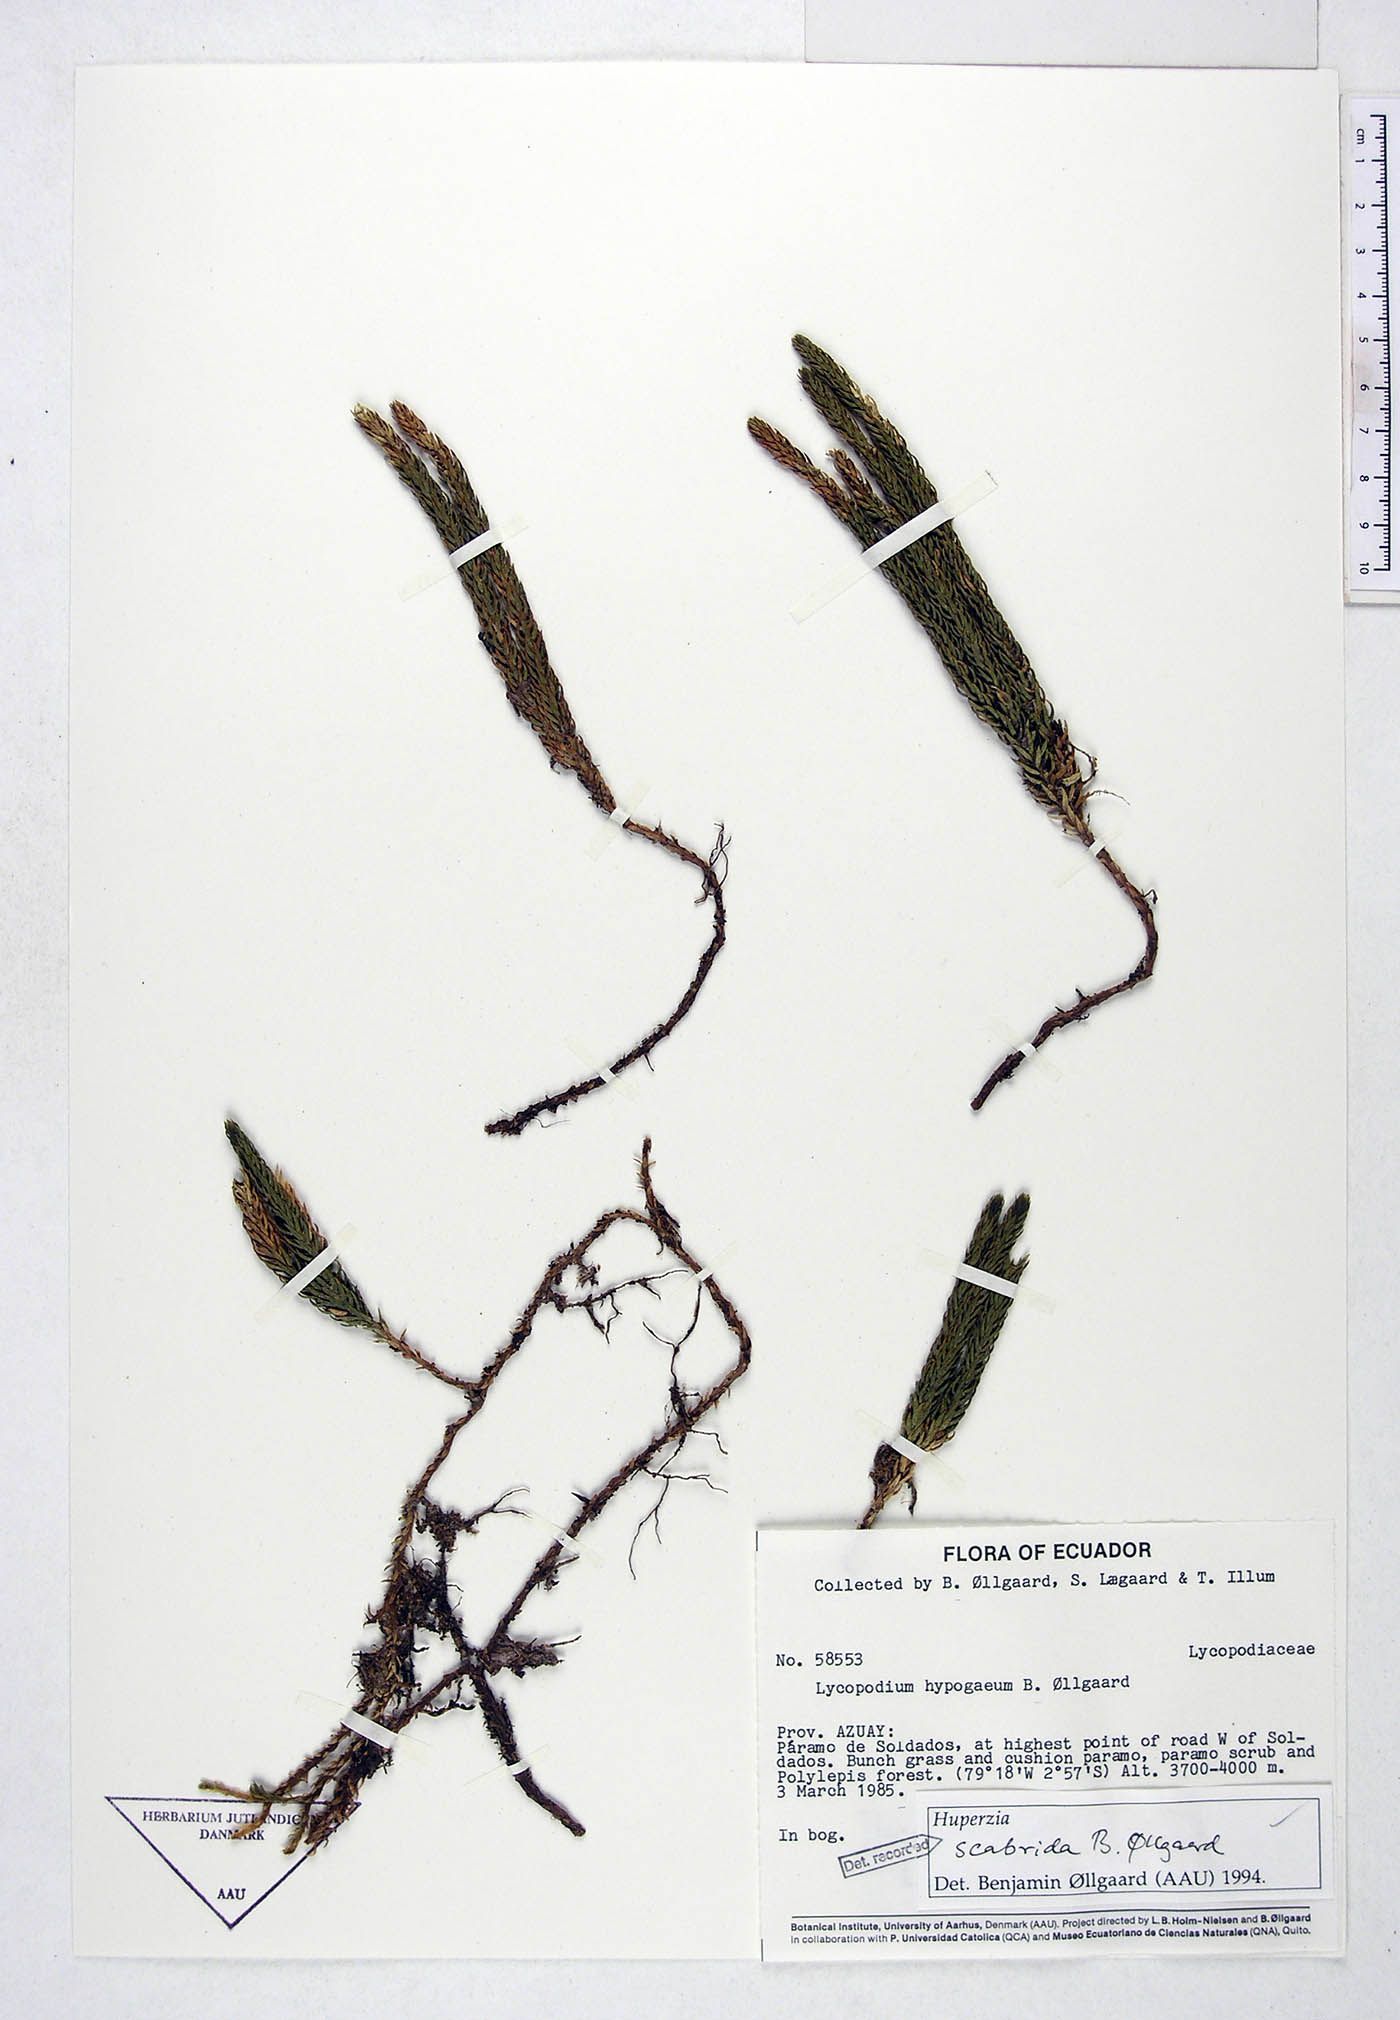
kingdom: Plantae
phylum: Tracheophyta
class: Lycopodiopsida
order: Lycopodiales
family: Lycopodiaceae
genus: Phlegmariurus
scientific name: Phlegmariurus scabridus
